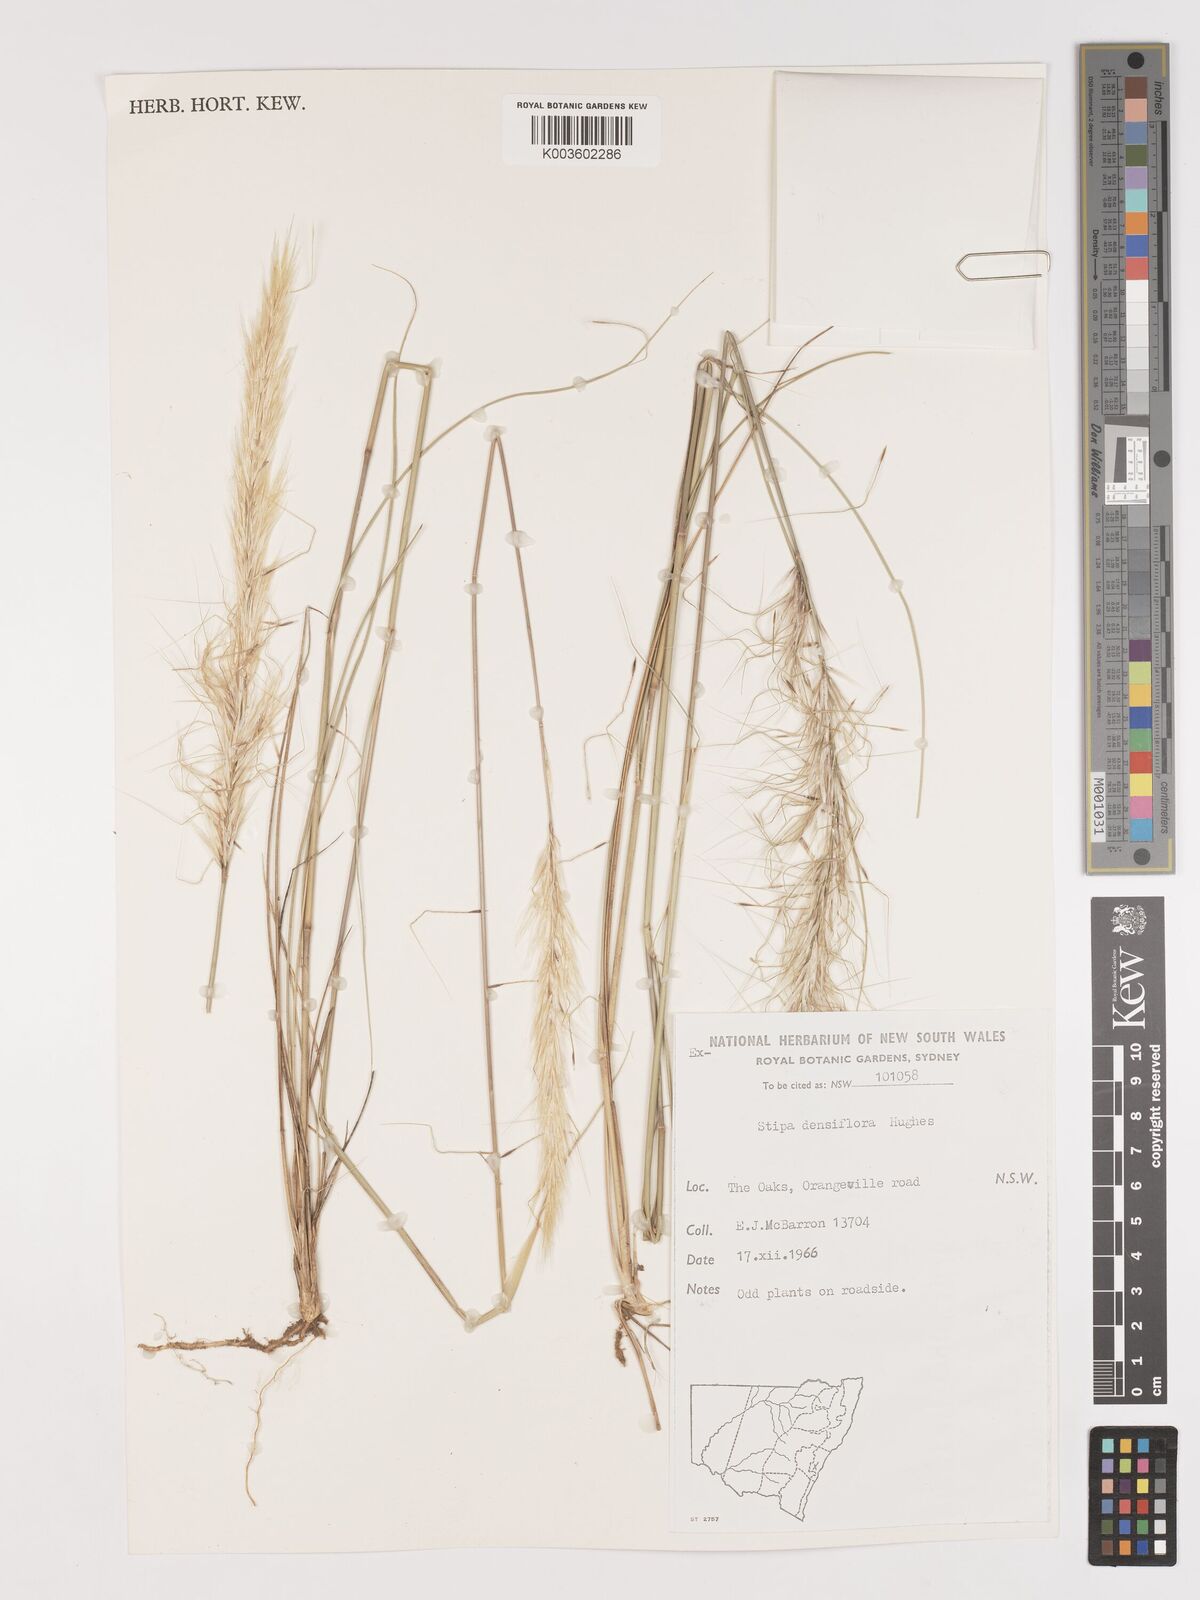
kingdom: Plantae
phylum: Tracheophyta
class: Liliopsida
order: Poales
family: Poaceae
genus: Stipa
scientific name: Stipa
